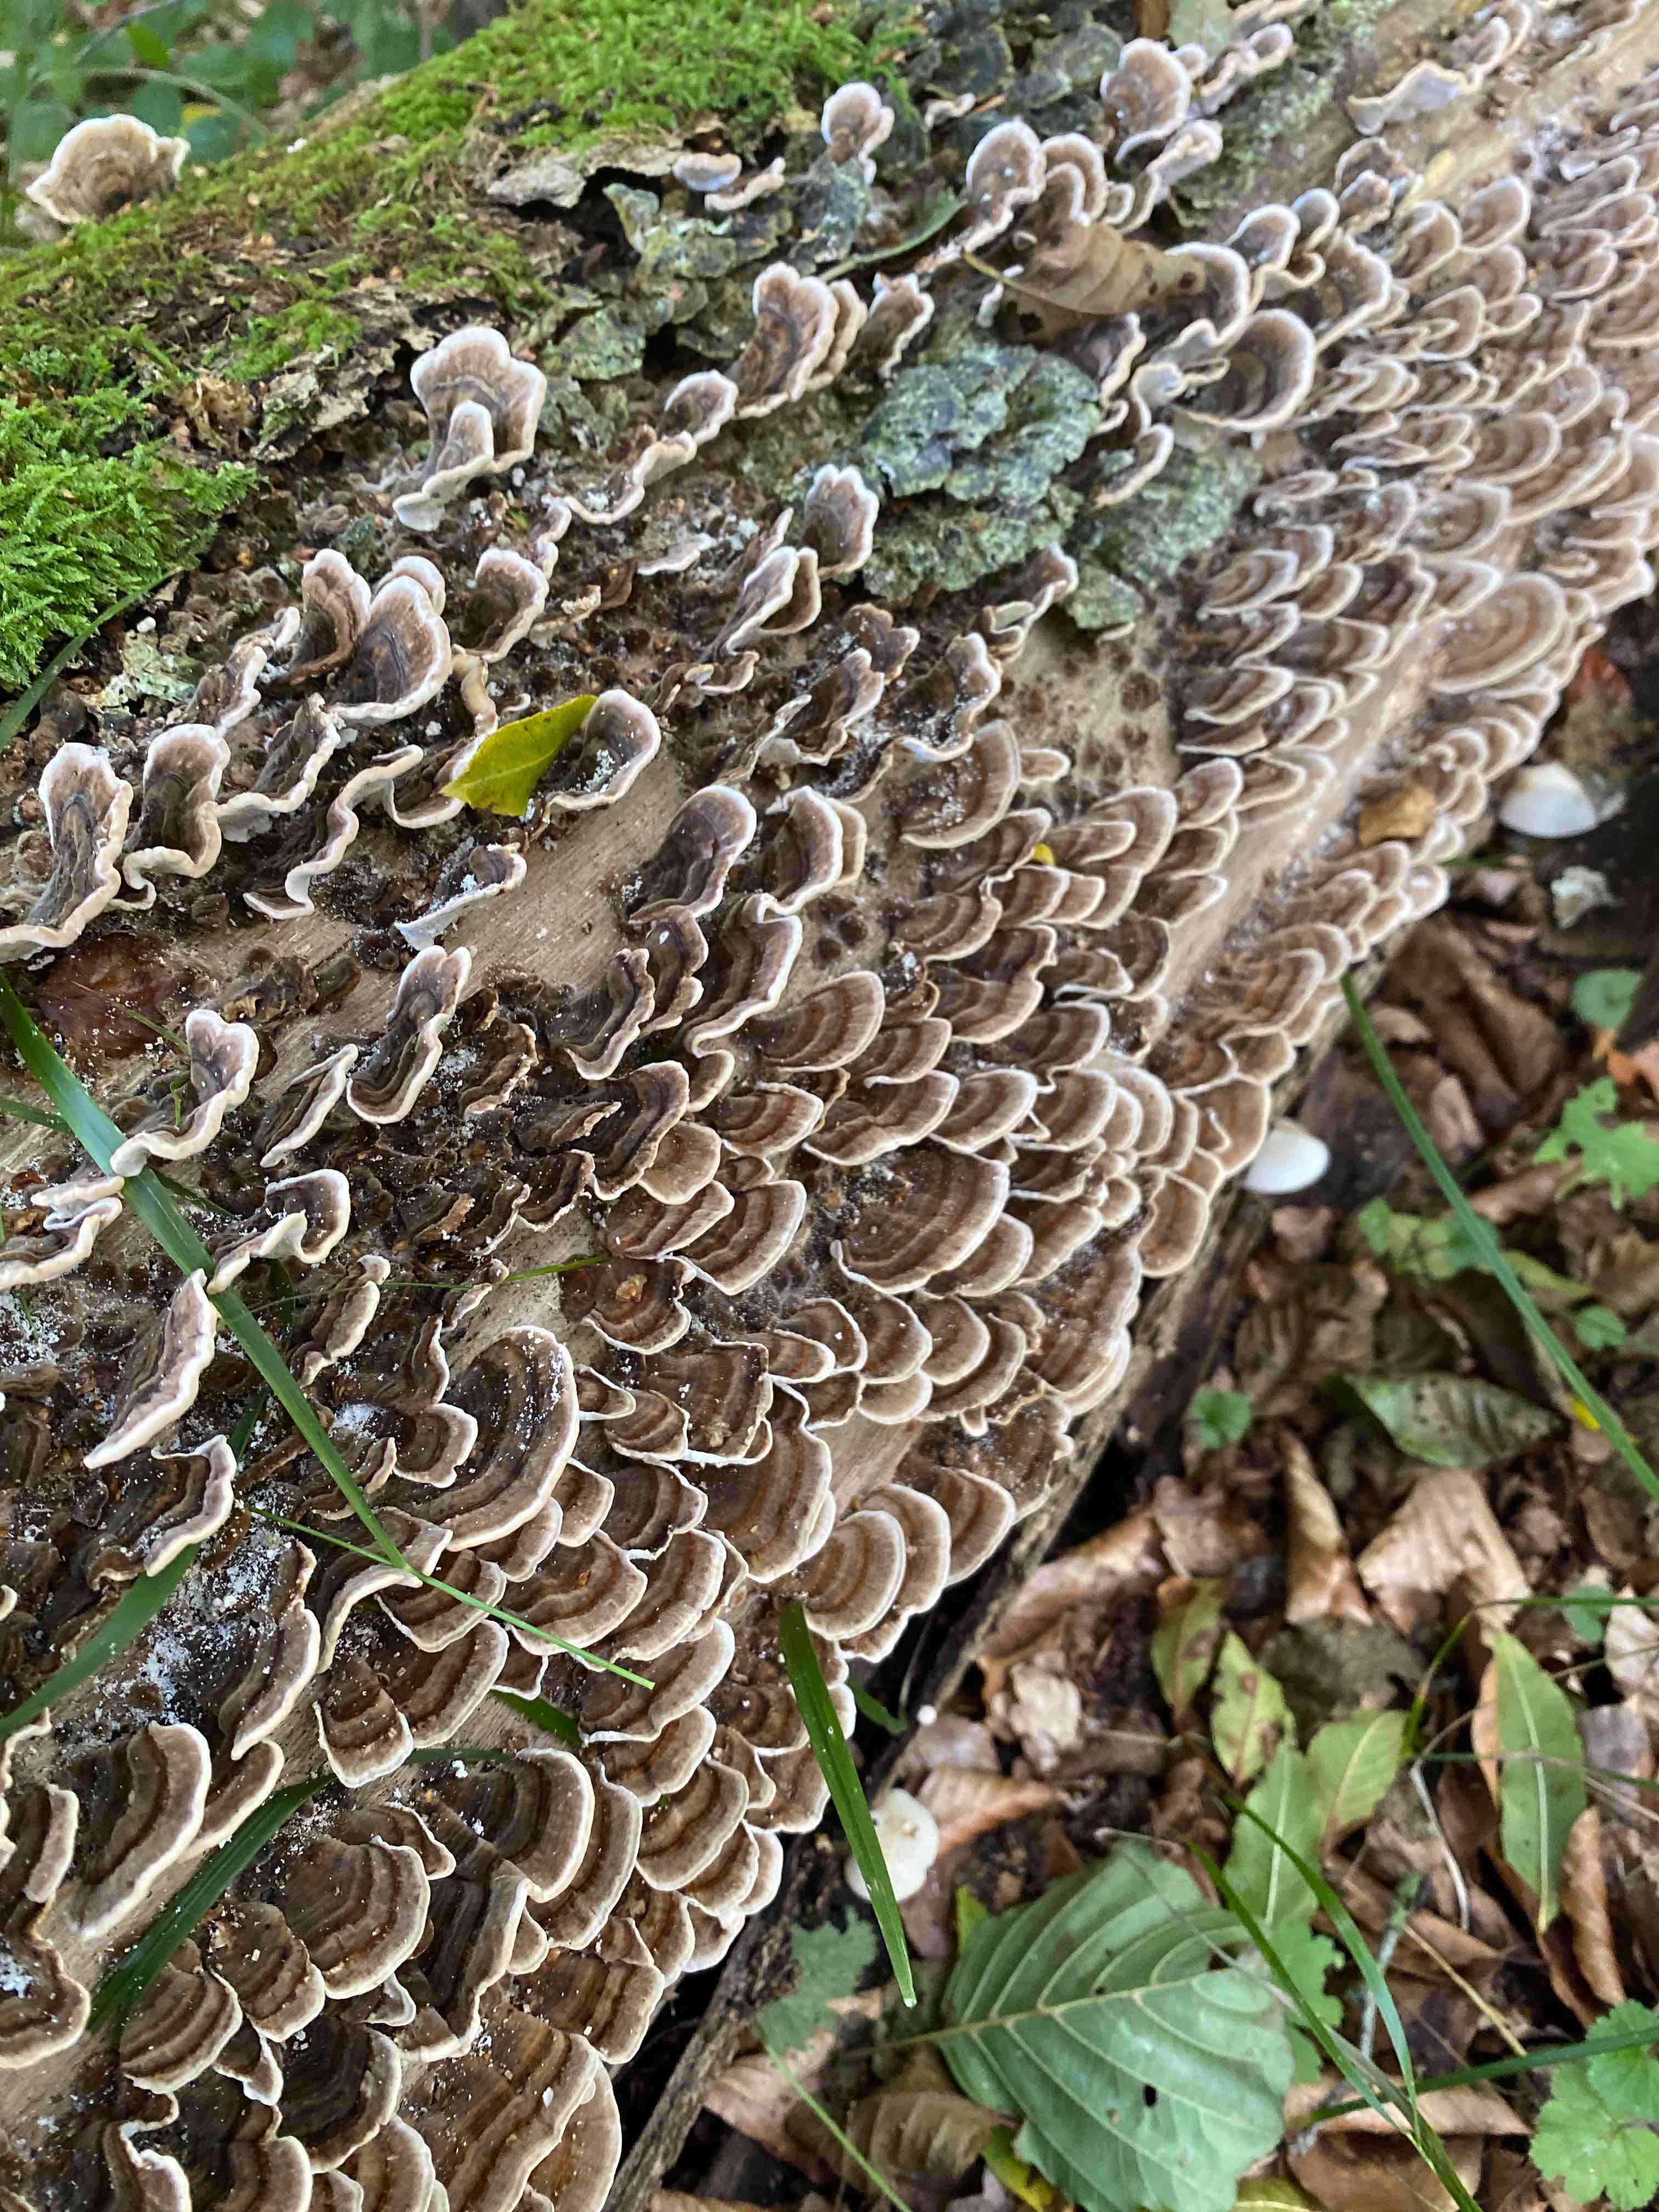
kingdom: Fungi
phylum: Basidiomycota
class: Agaricomycetes
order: Polyporales
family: Polyporaceae
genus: Trametes
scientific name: Trametes versicolor
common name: broget læderporesvamp
